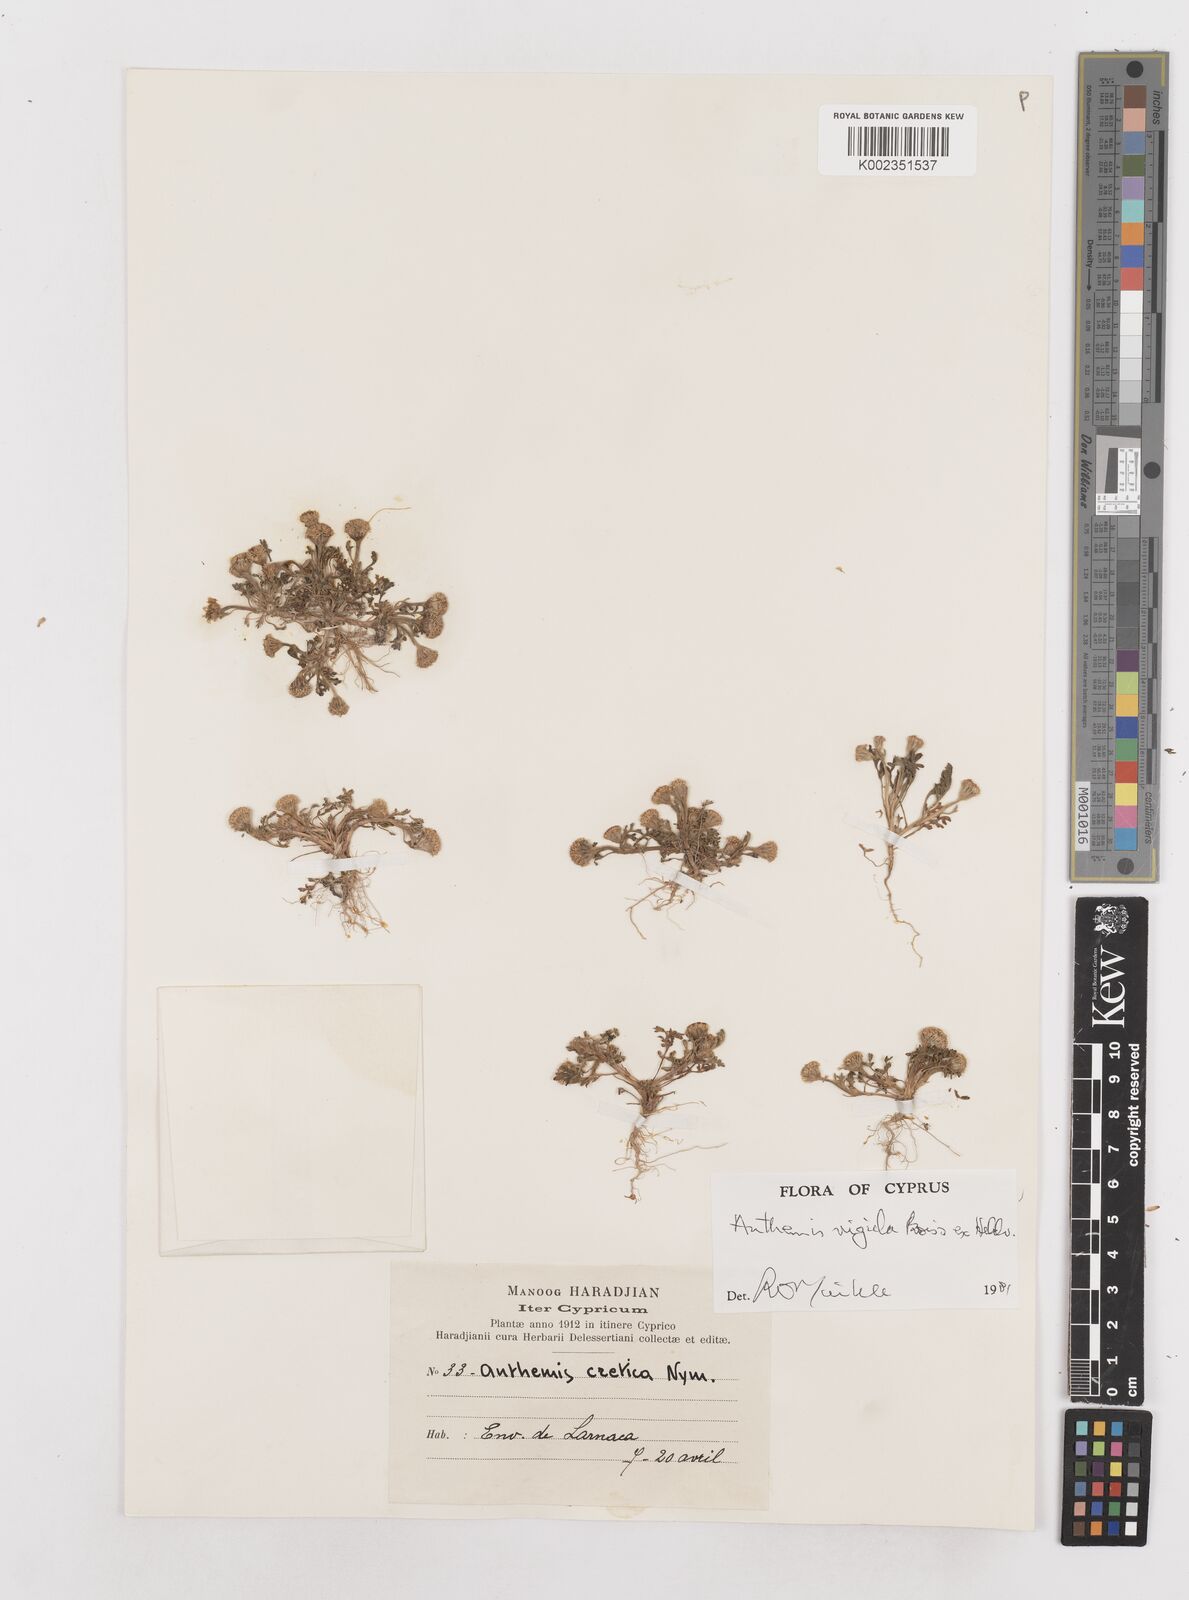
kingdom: Plantae
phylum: Tracheophyta
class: Magnoliopsida
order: Asterales
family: Asteraceae
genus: Anthemis
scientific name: Anthemis rigida
